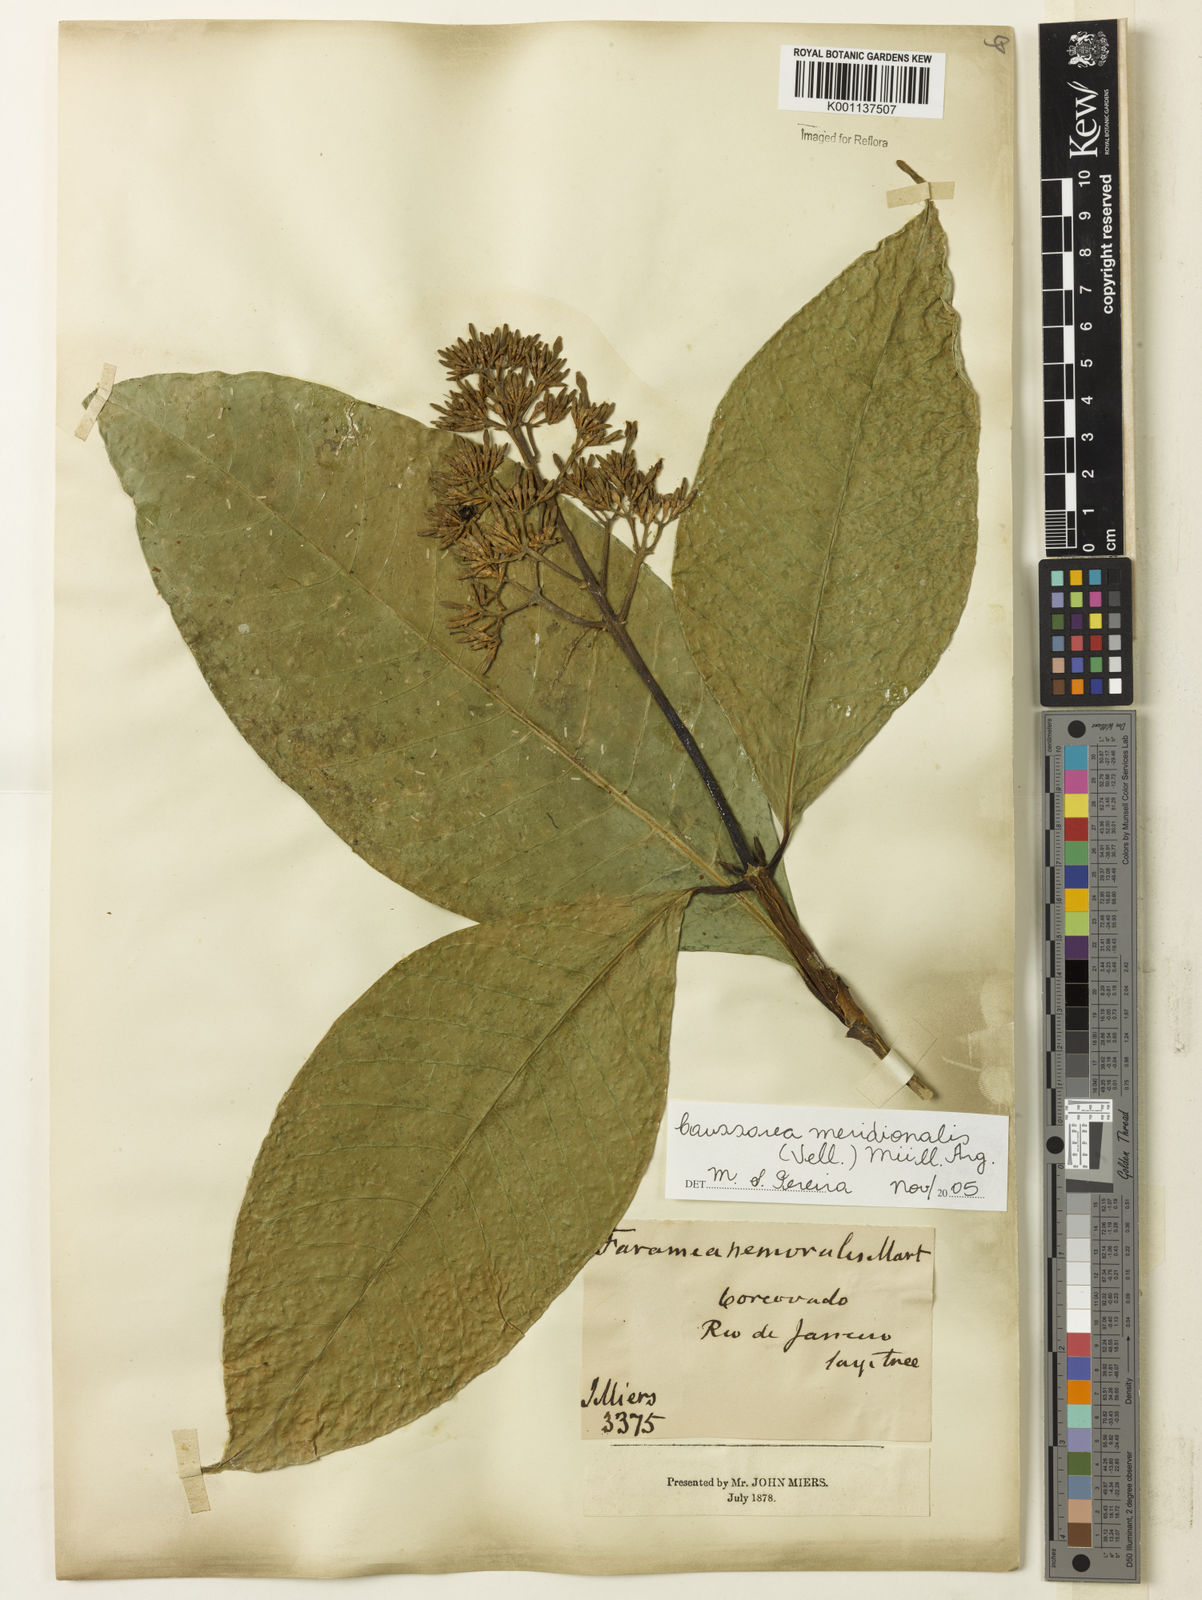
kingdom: Plantae
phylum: Tracheophyta
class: Magnoliopsida
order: Gentianales
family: Rubiaceae
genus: Coussarea
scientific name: Coussarea
